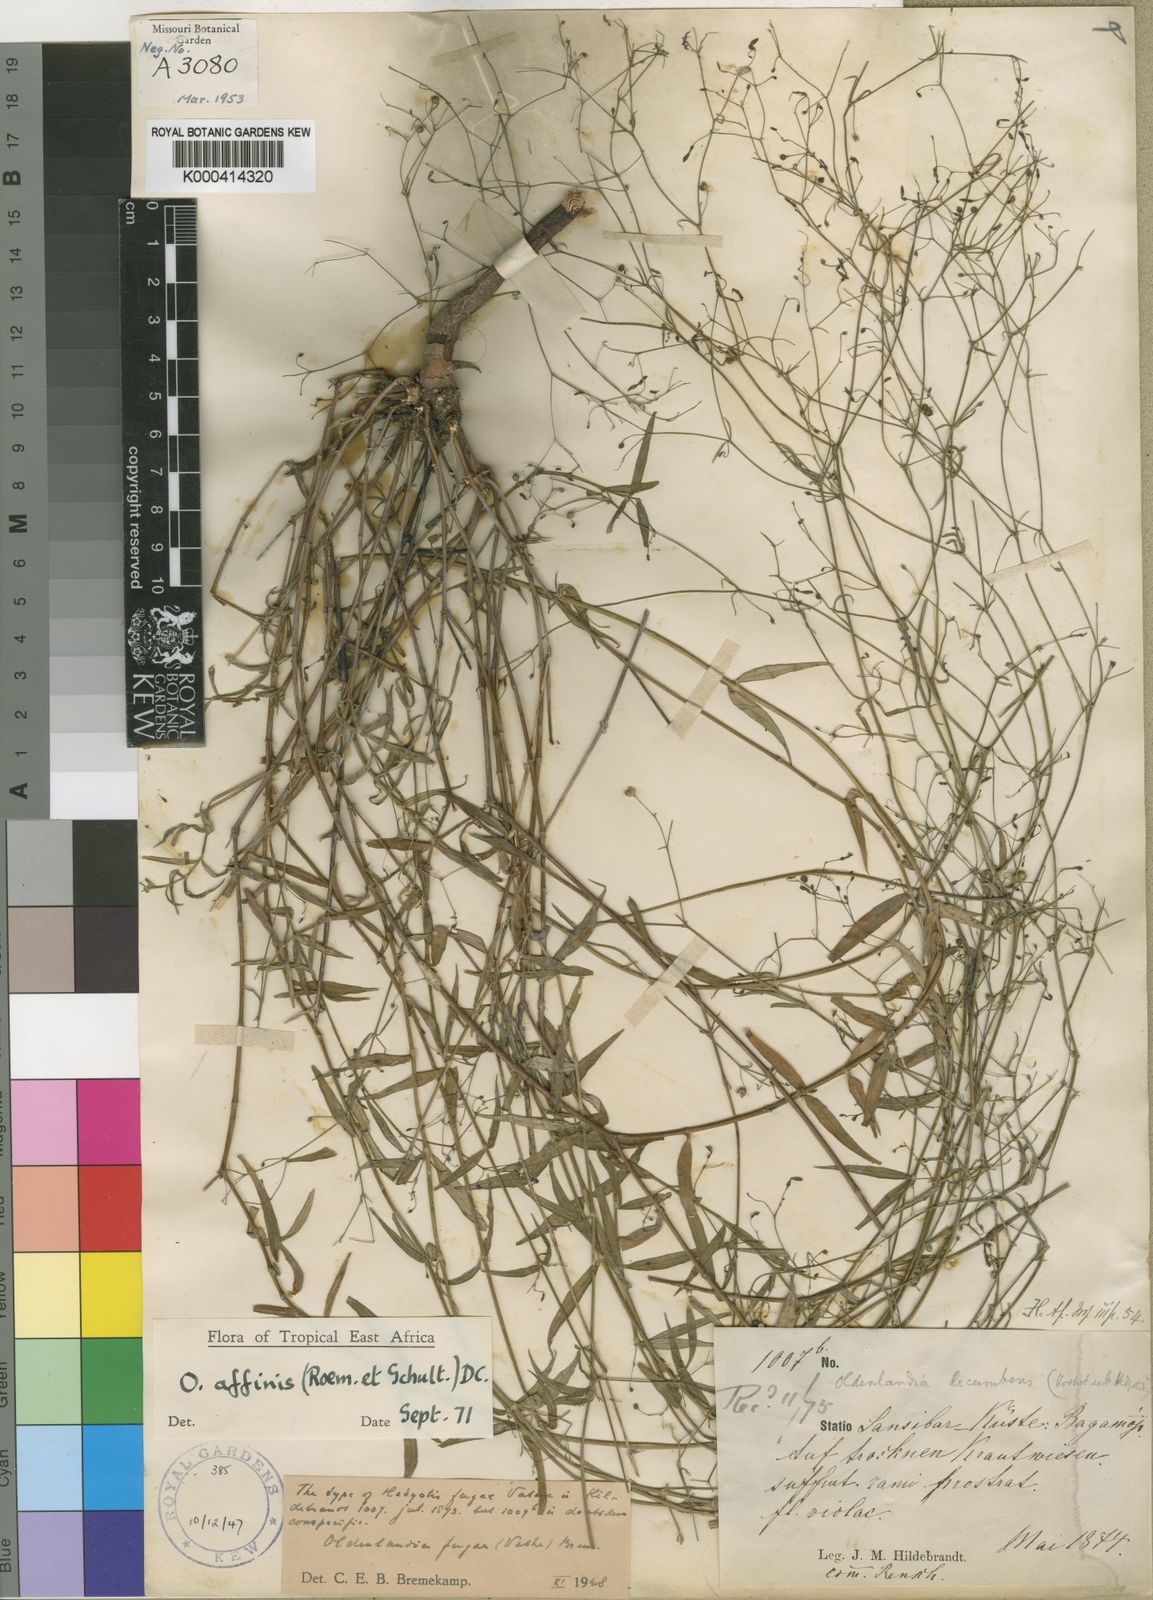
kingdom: Plantae
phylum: Tracheophyta
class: Magnoliopsida
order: Gentianales
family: Rubiaceae
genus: Oldenlandia
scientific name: Oldenlandia affinis
